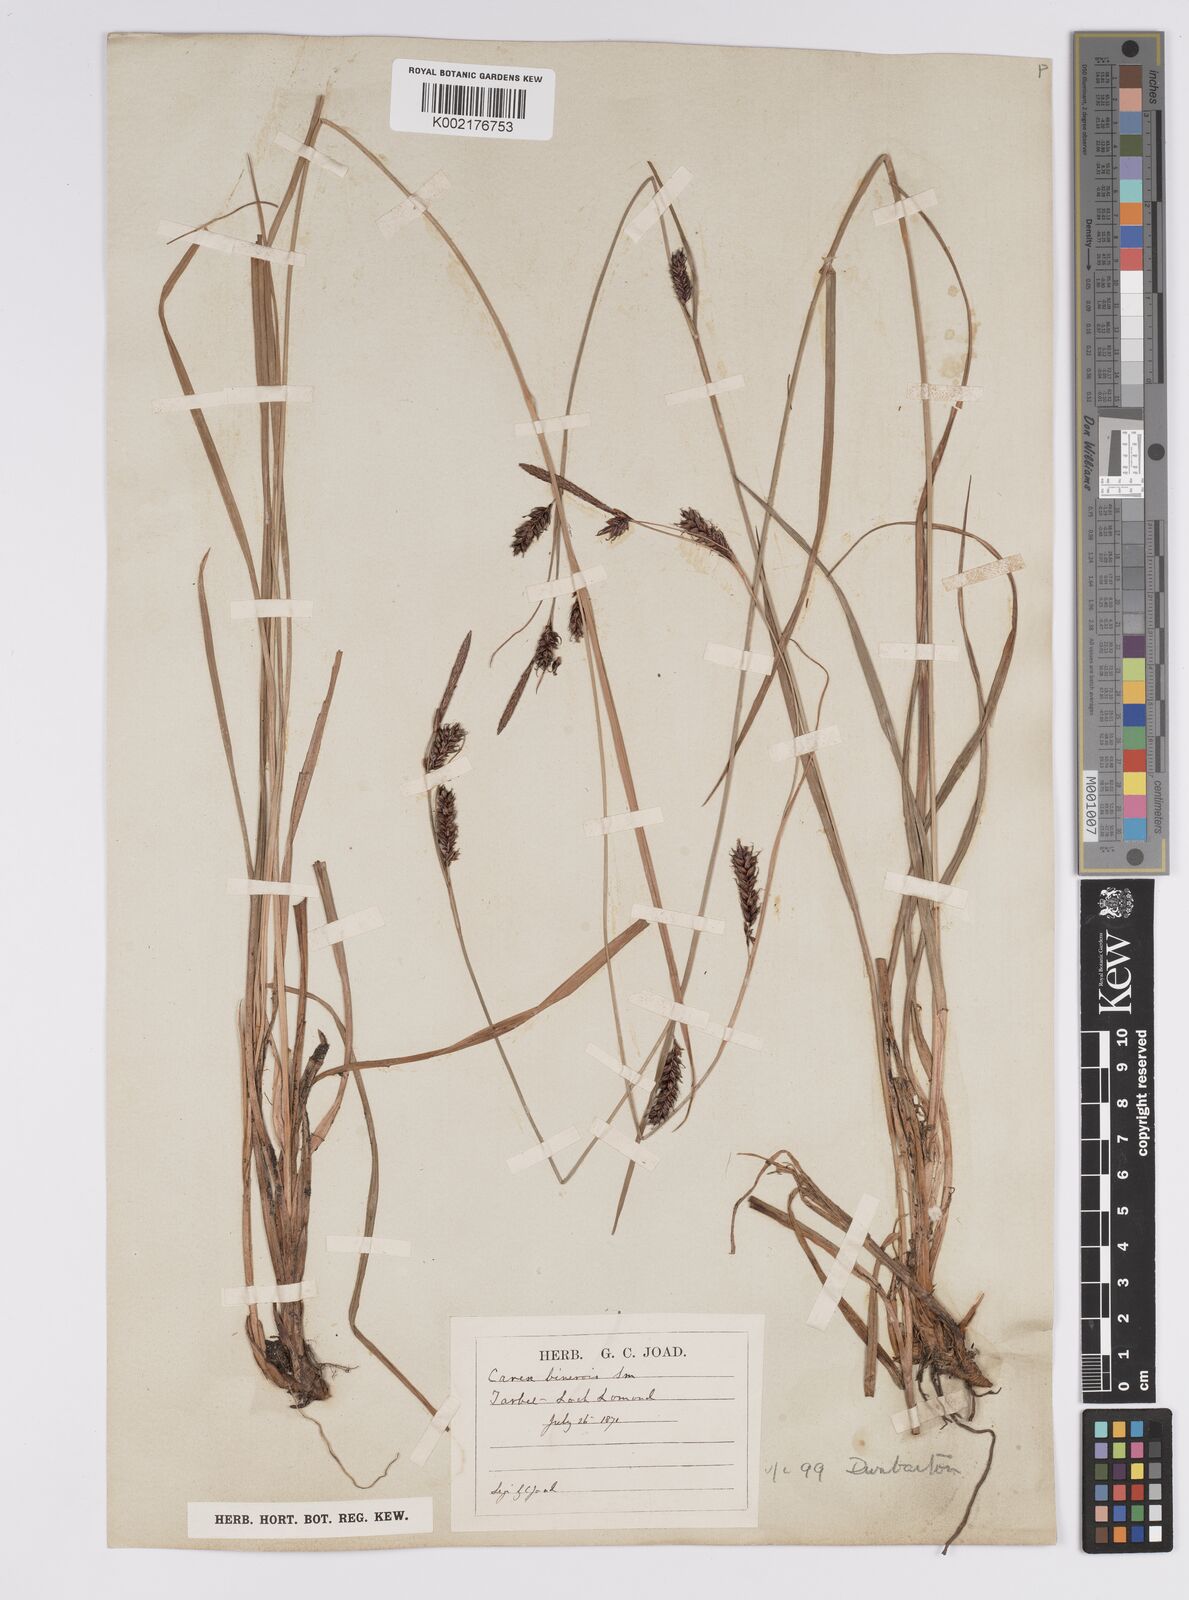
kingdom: Plantae
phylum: Tracheophyta
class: Liliopsida
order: Poales
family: Cyperaceae
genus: Carex
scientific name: Carex binervis
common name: Green-ribbed sedge
